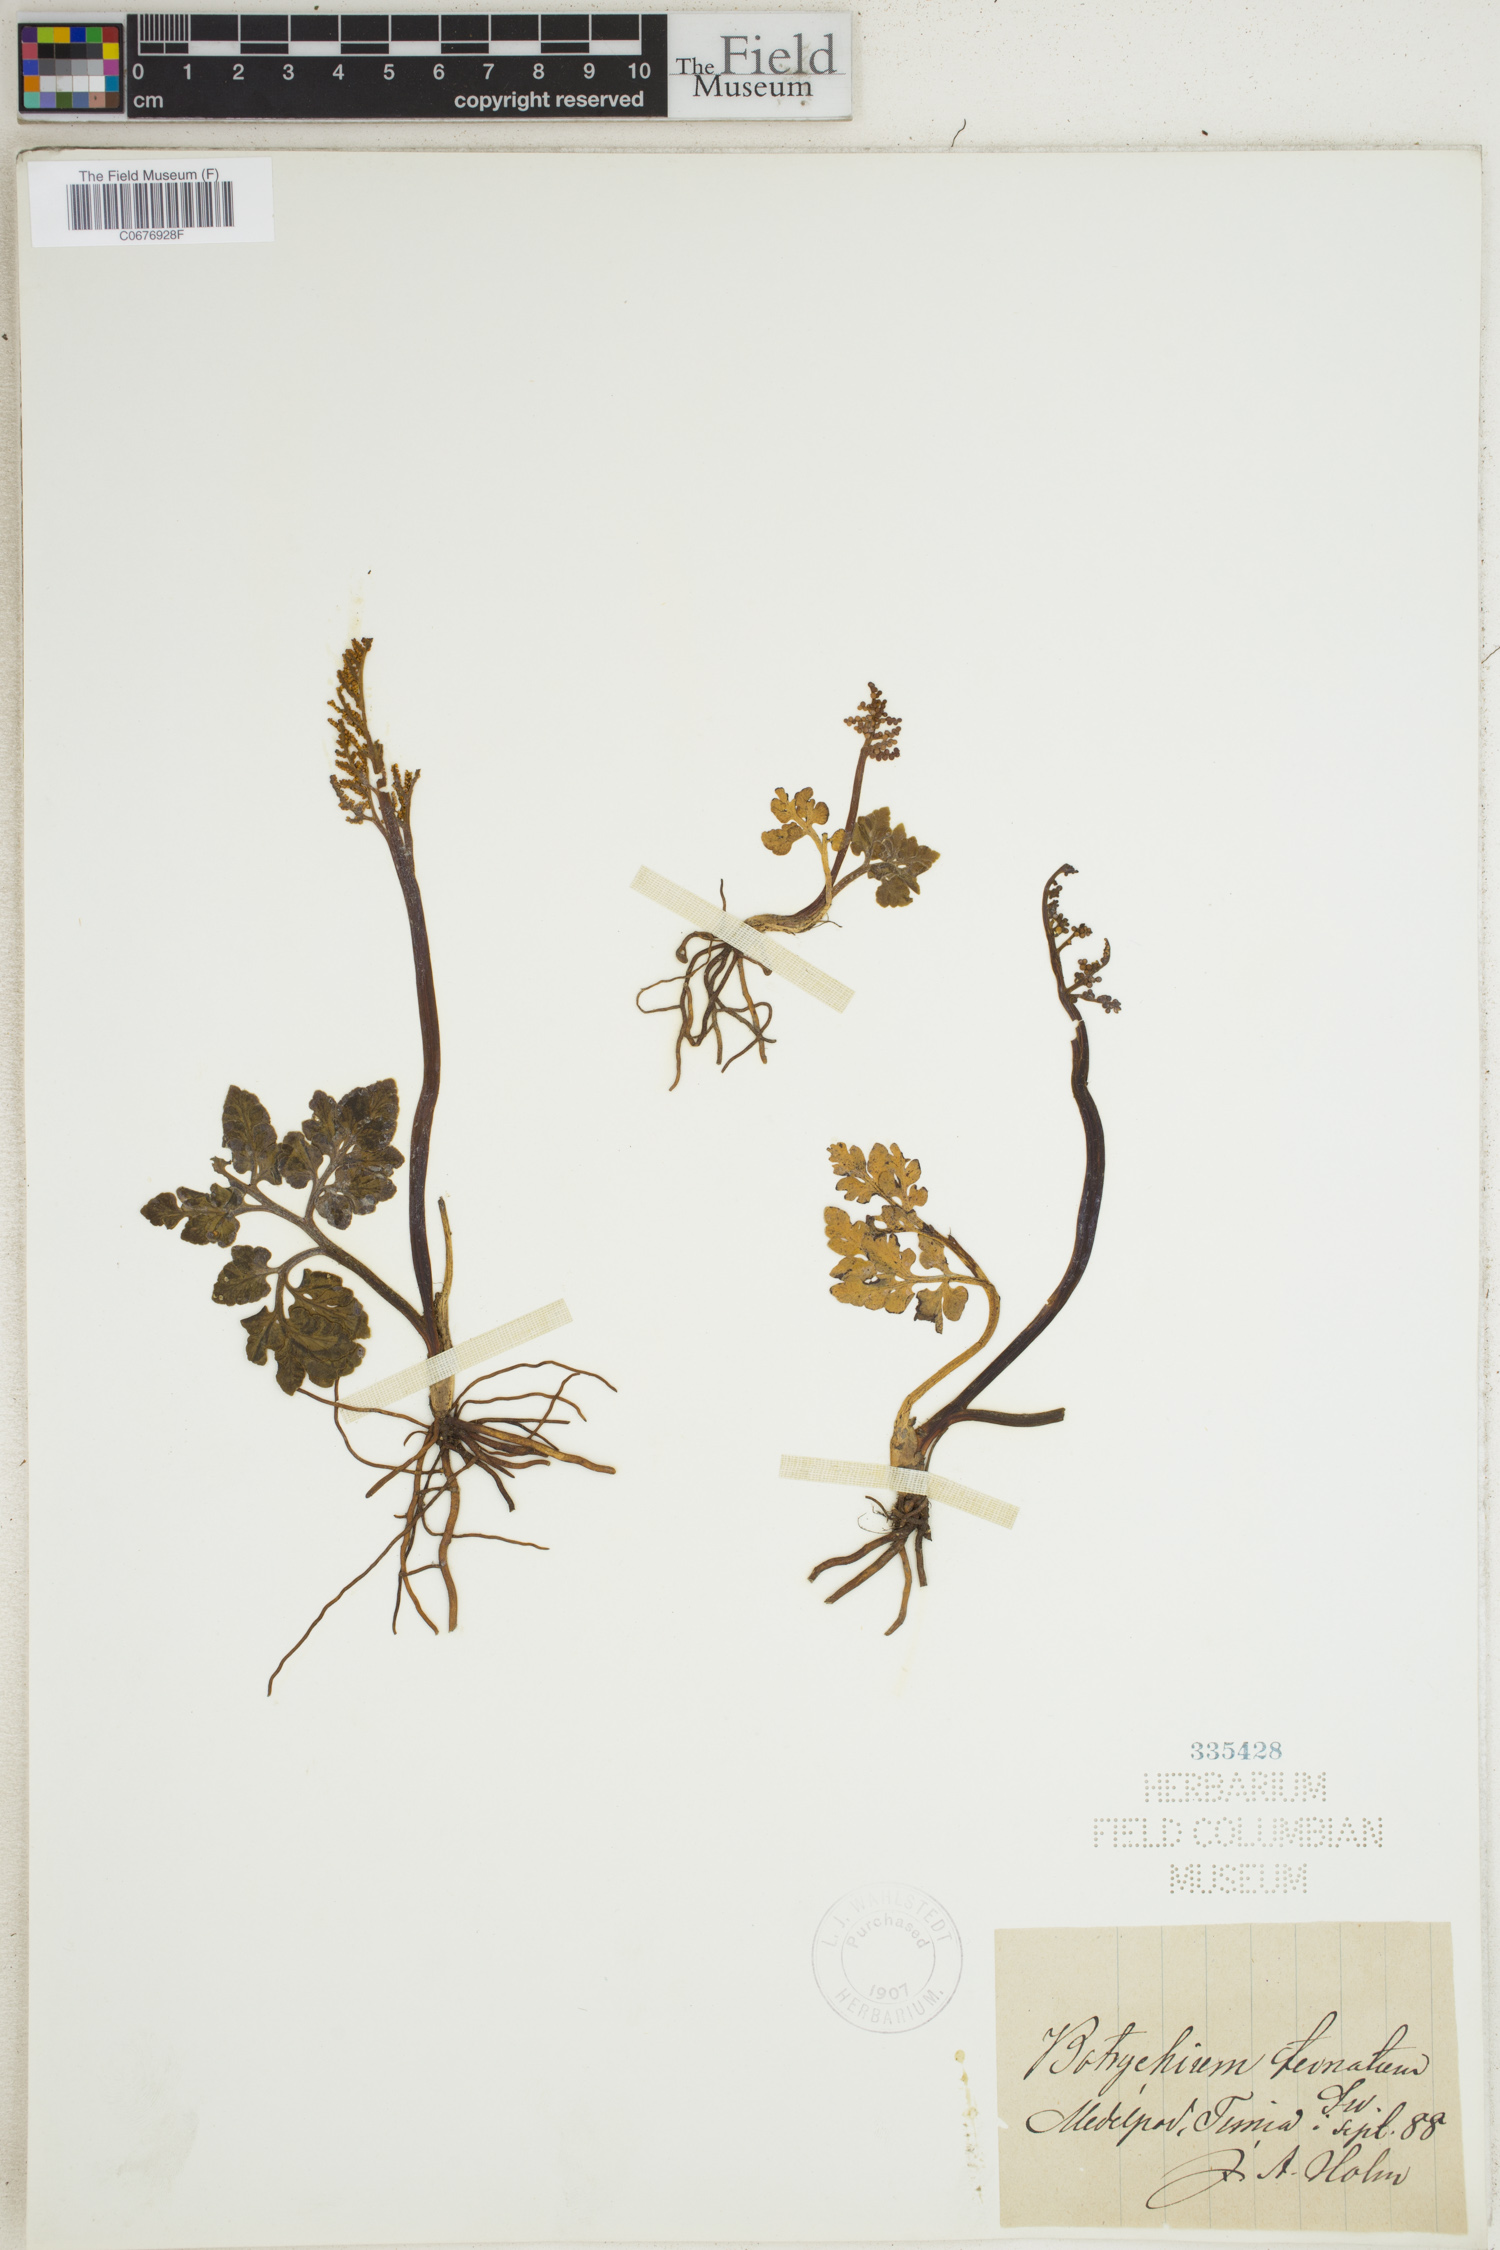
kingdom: Plantae
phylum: Tracheophyta
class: Polypodiopsida
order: Ophioglossales
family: Ophioglossaceae
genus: Botrychium
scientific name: Botrychium lunaria
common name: Moonwort
